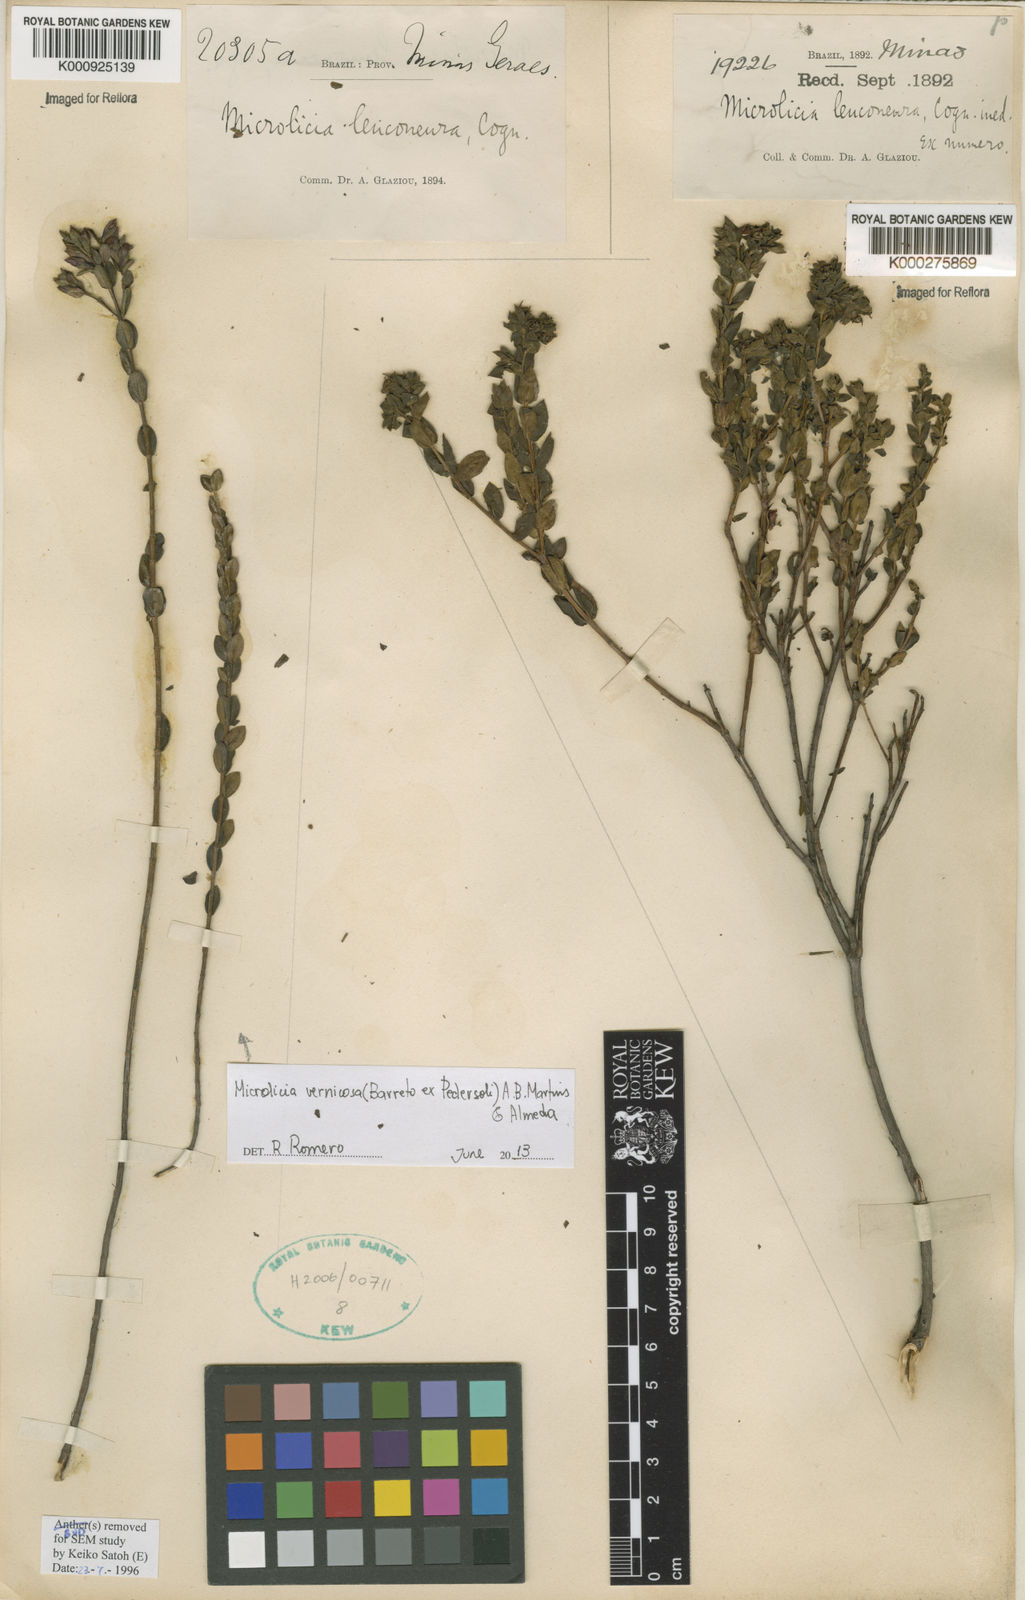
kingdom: Plantae
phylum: Tracheophyta
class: Magnoliopsida
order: Myrtales
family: Melastomataceae
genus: Microlicia
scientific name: Microlicia leuconeura
